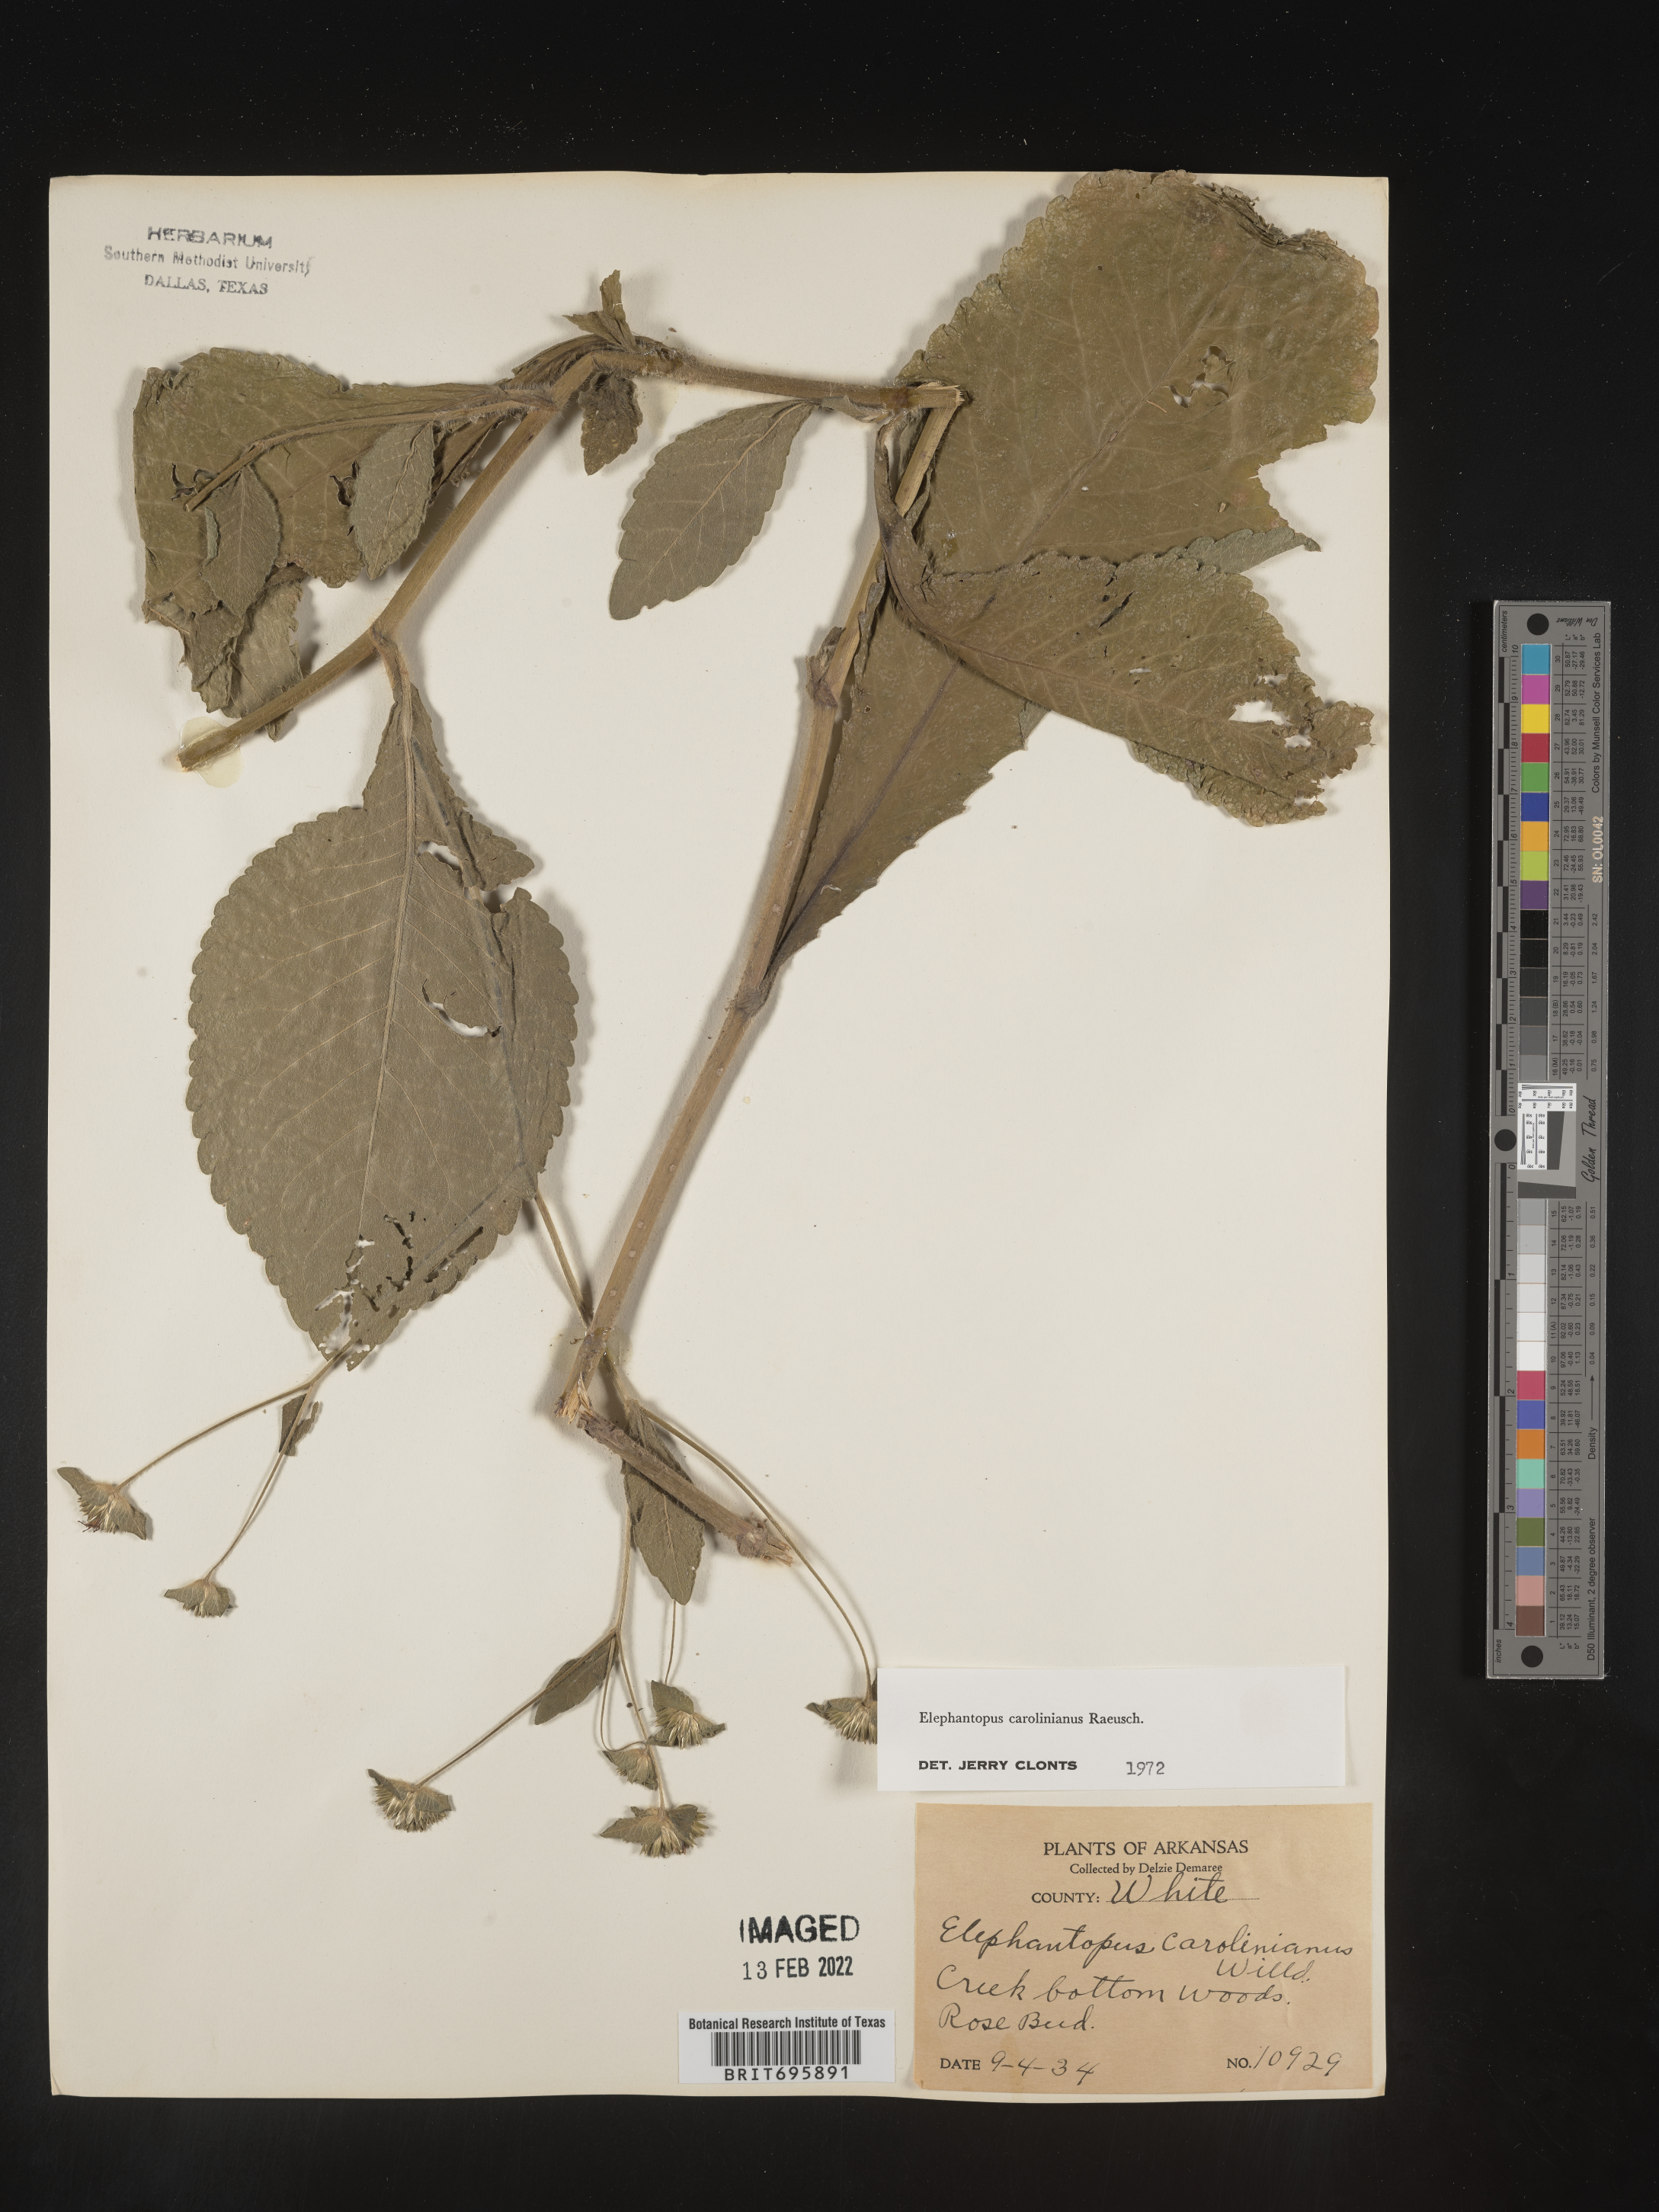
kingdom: Plantae
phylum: Tracheophyta
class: Magnoliopsida
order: Asterales
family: Asteraceae
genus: Elephantopus
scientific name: Elephantopus carolinianus
